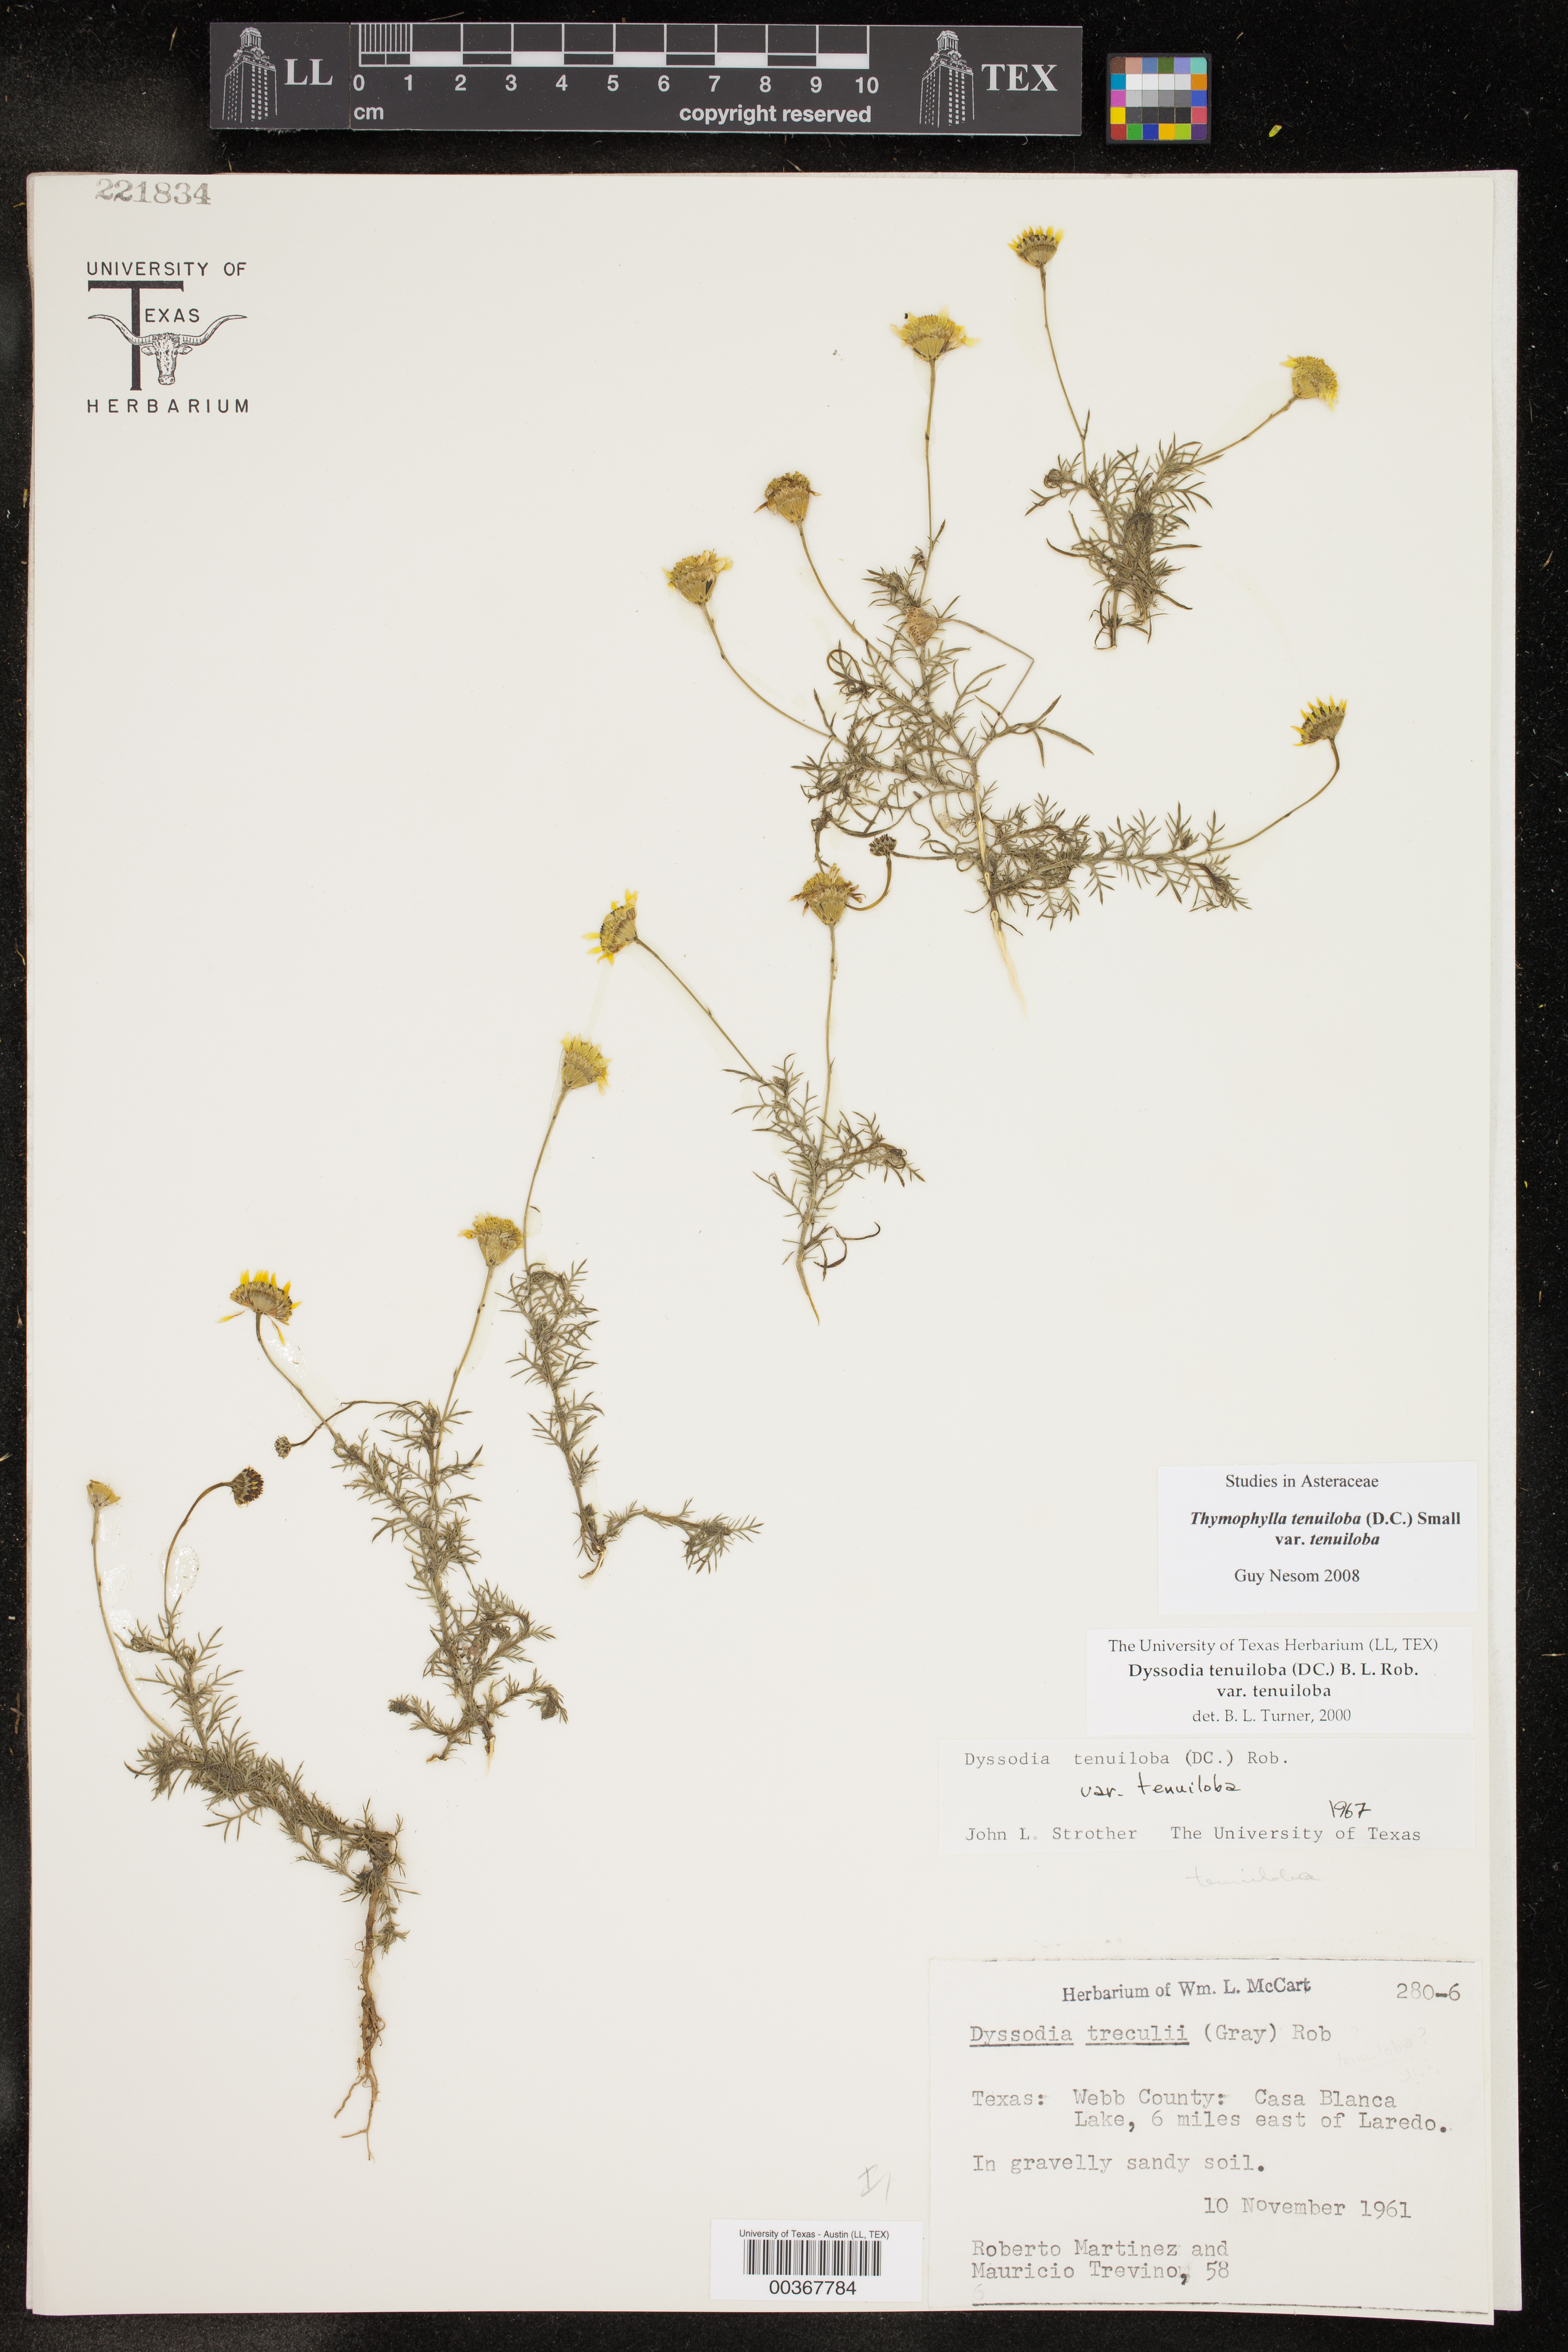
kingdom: Plantae
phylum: Tracheophyta
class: Magnoliopsida
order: Asterales
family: Asteraceae
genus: Thymophylla
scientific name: Thymophylla tenuiloba
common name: Dahlberg's daisy
